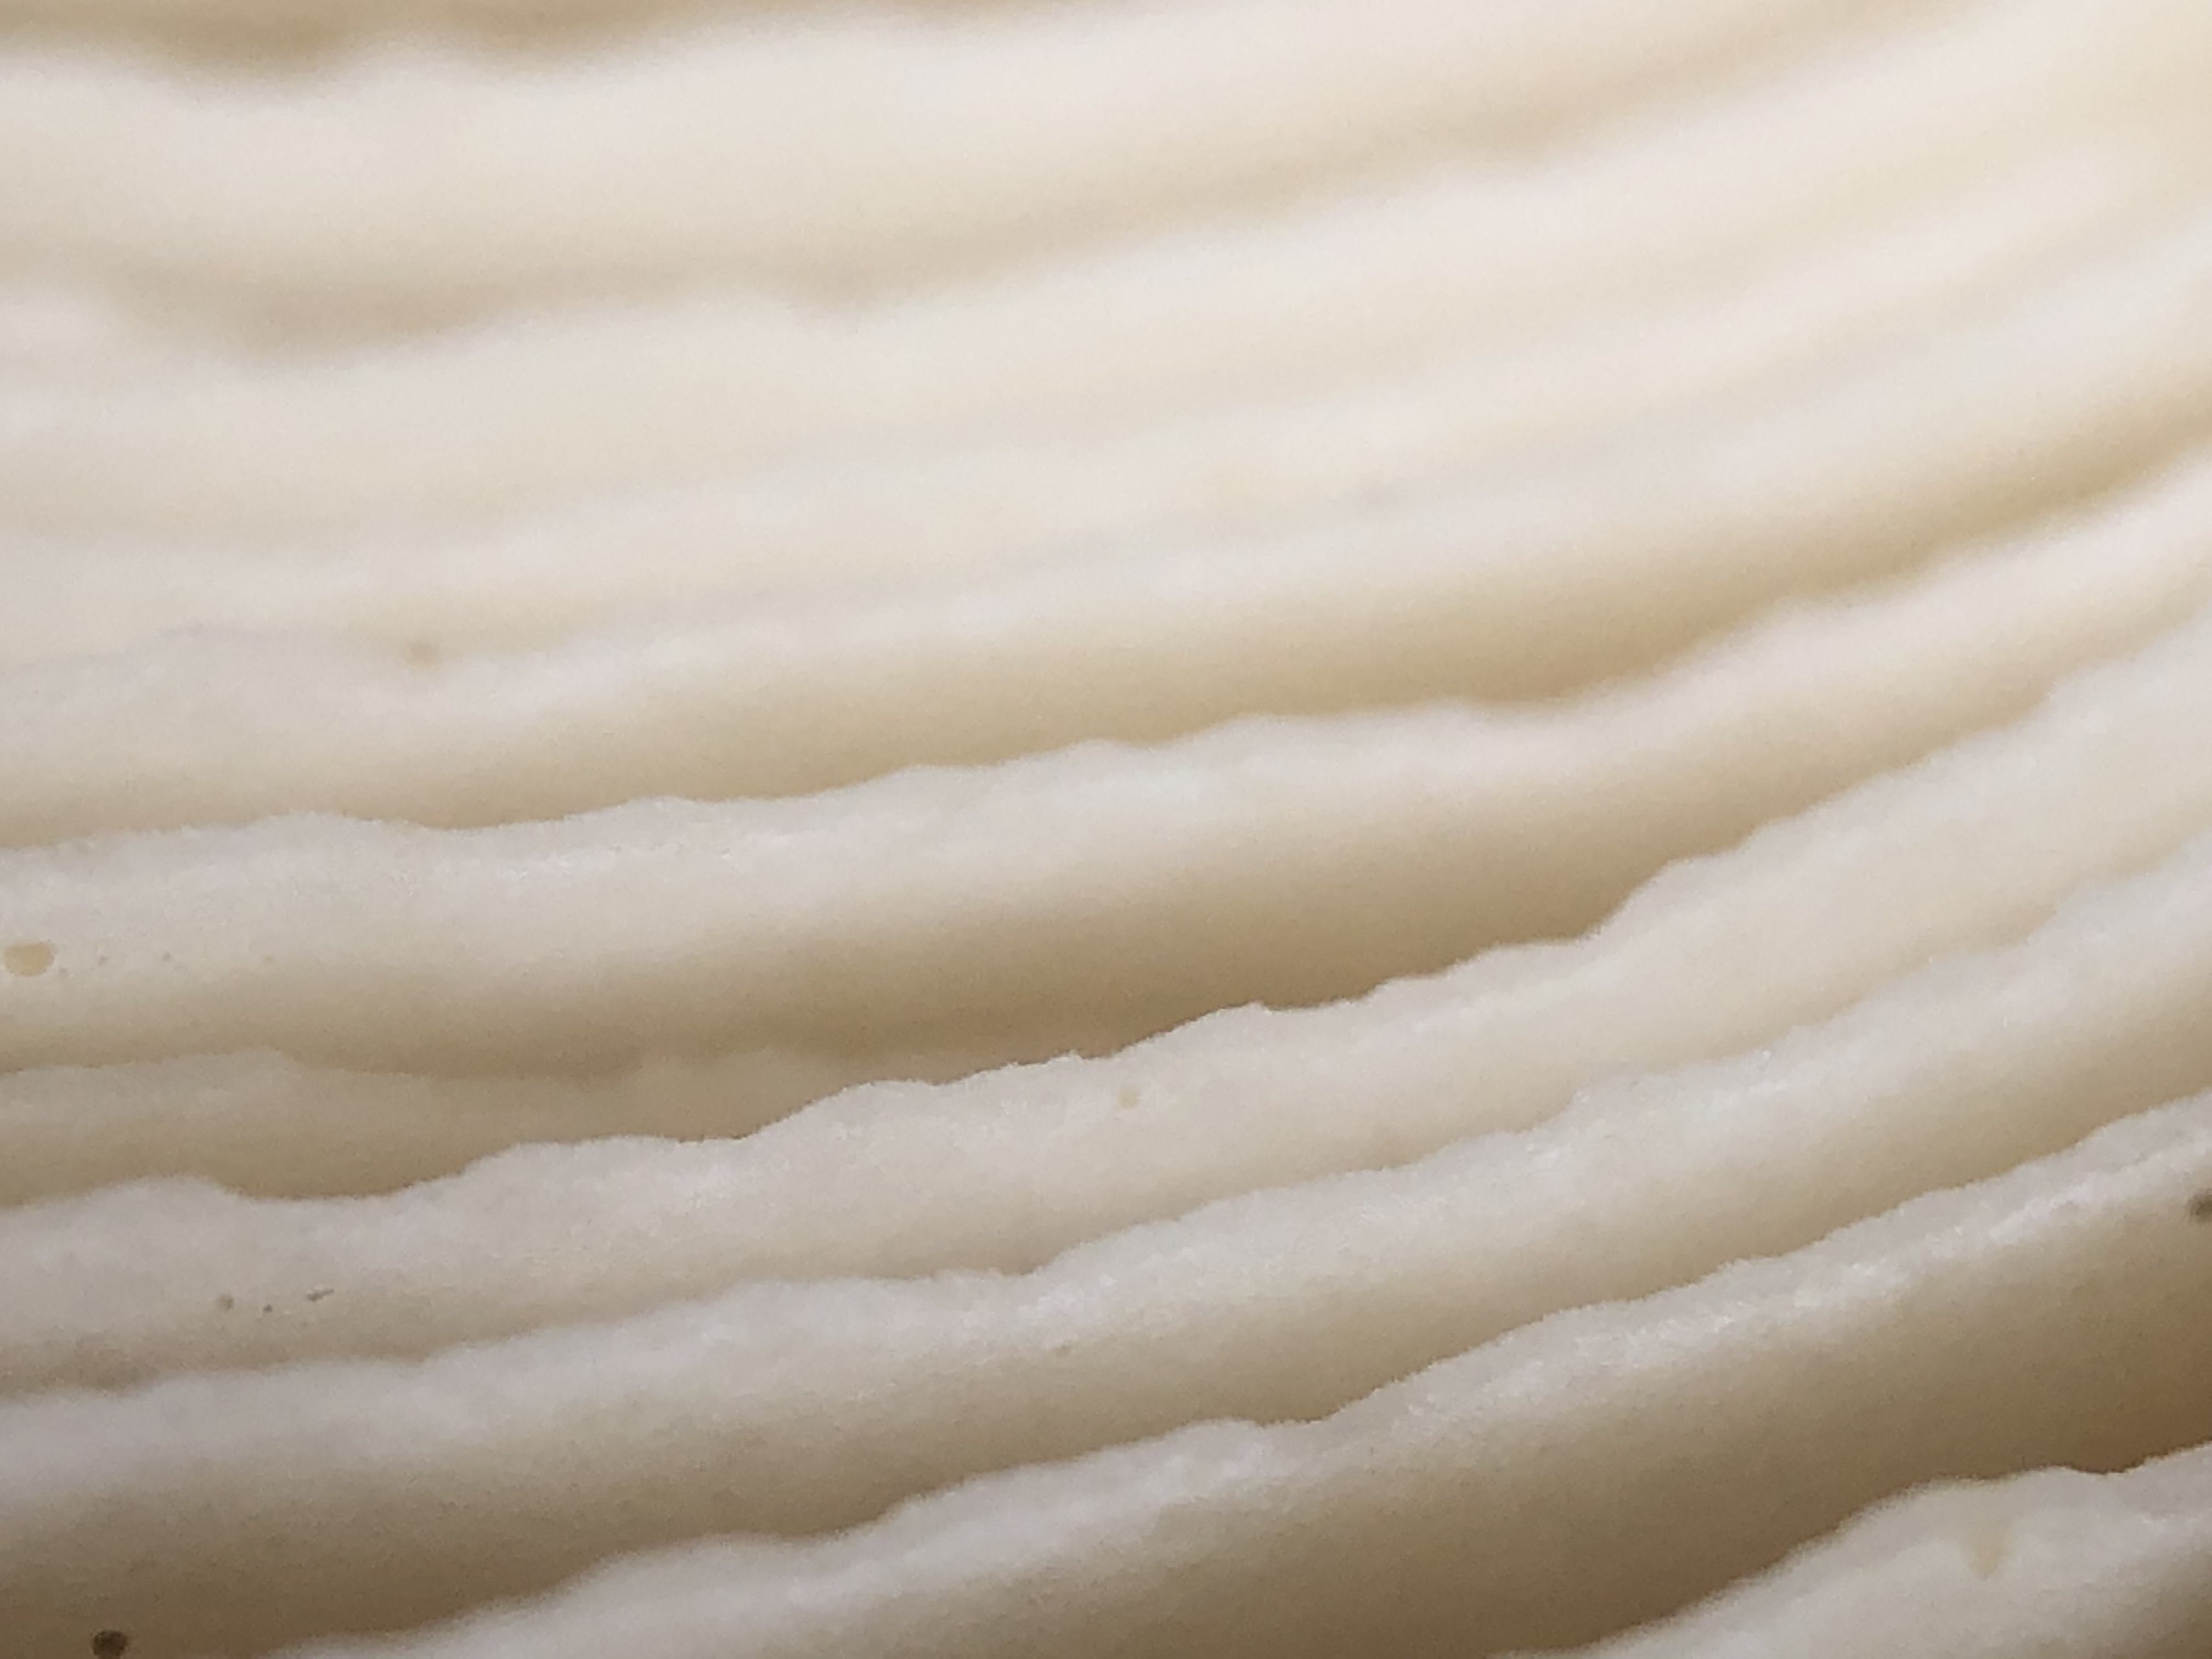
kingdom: Fungi
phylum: Basidiomycota
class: Agaricomycetes
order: Agaricales
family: Omphalotaceae
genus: Rhodocollybia
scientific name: Rhodocollybia maculata
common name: plettet fladhat
